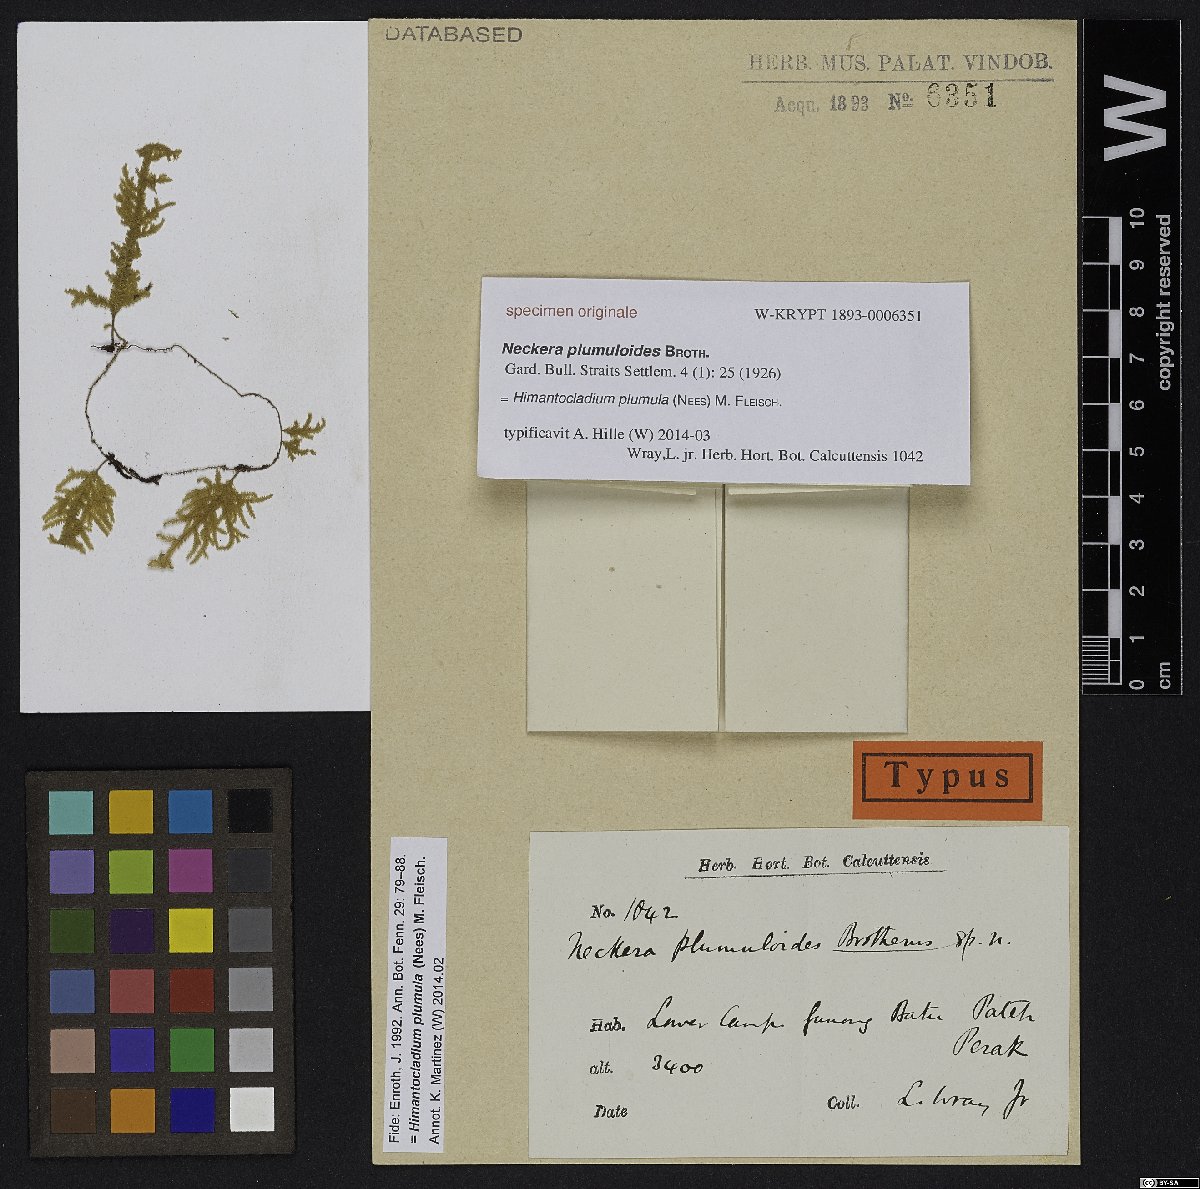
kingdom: Plantae
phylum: Bryophyta
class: Bryopsida
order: Hypnales
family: Neckeraceae
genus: Himantocladium
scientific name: Himantocladium plumula
